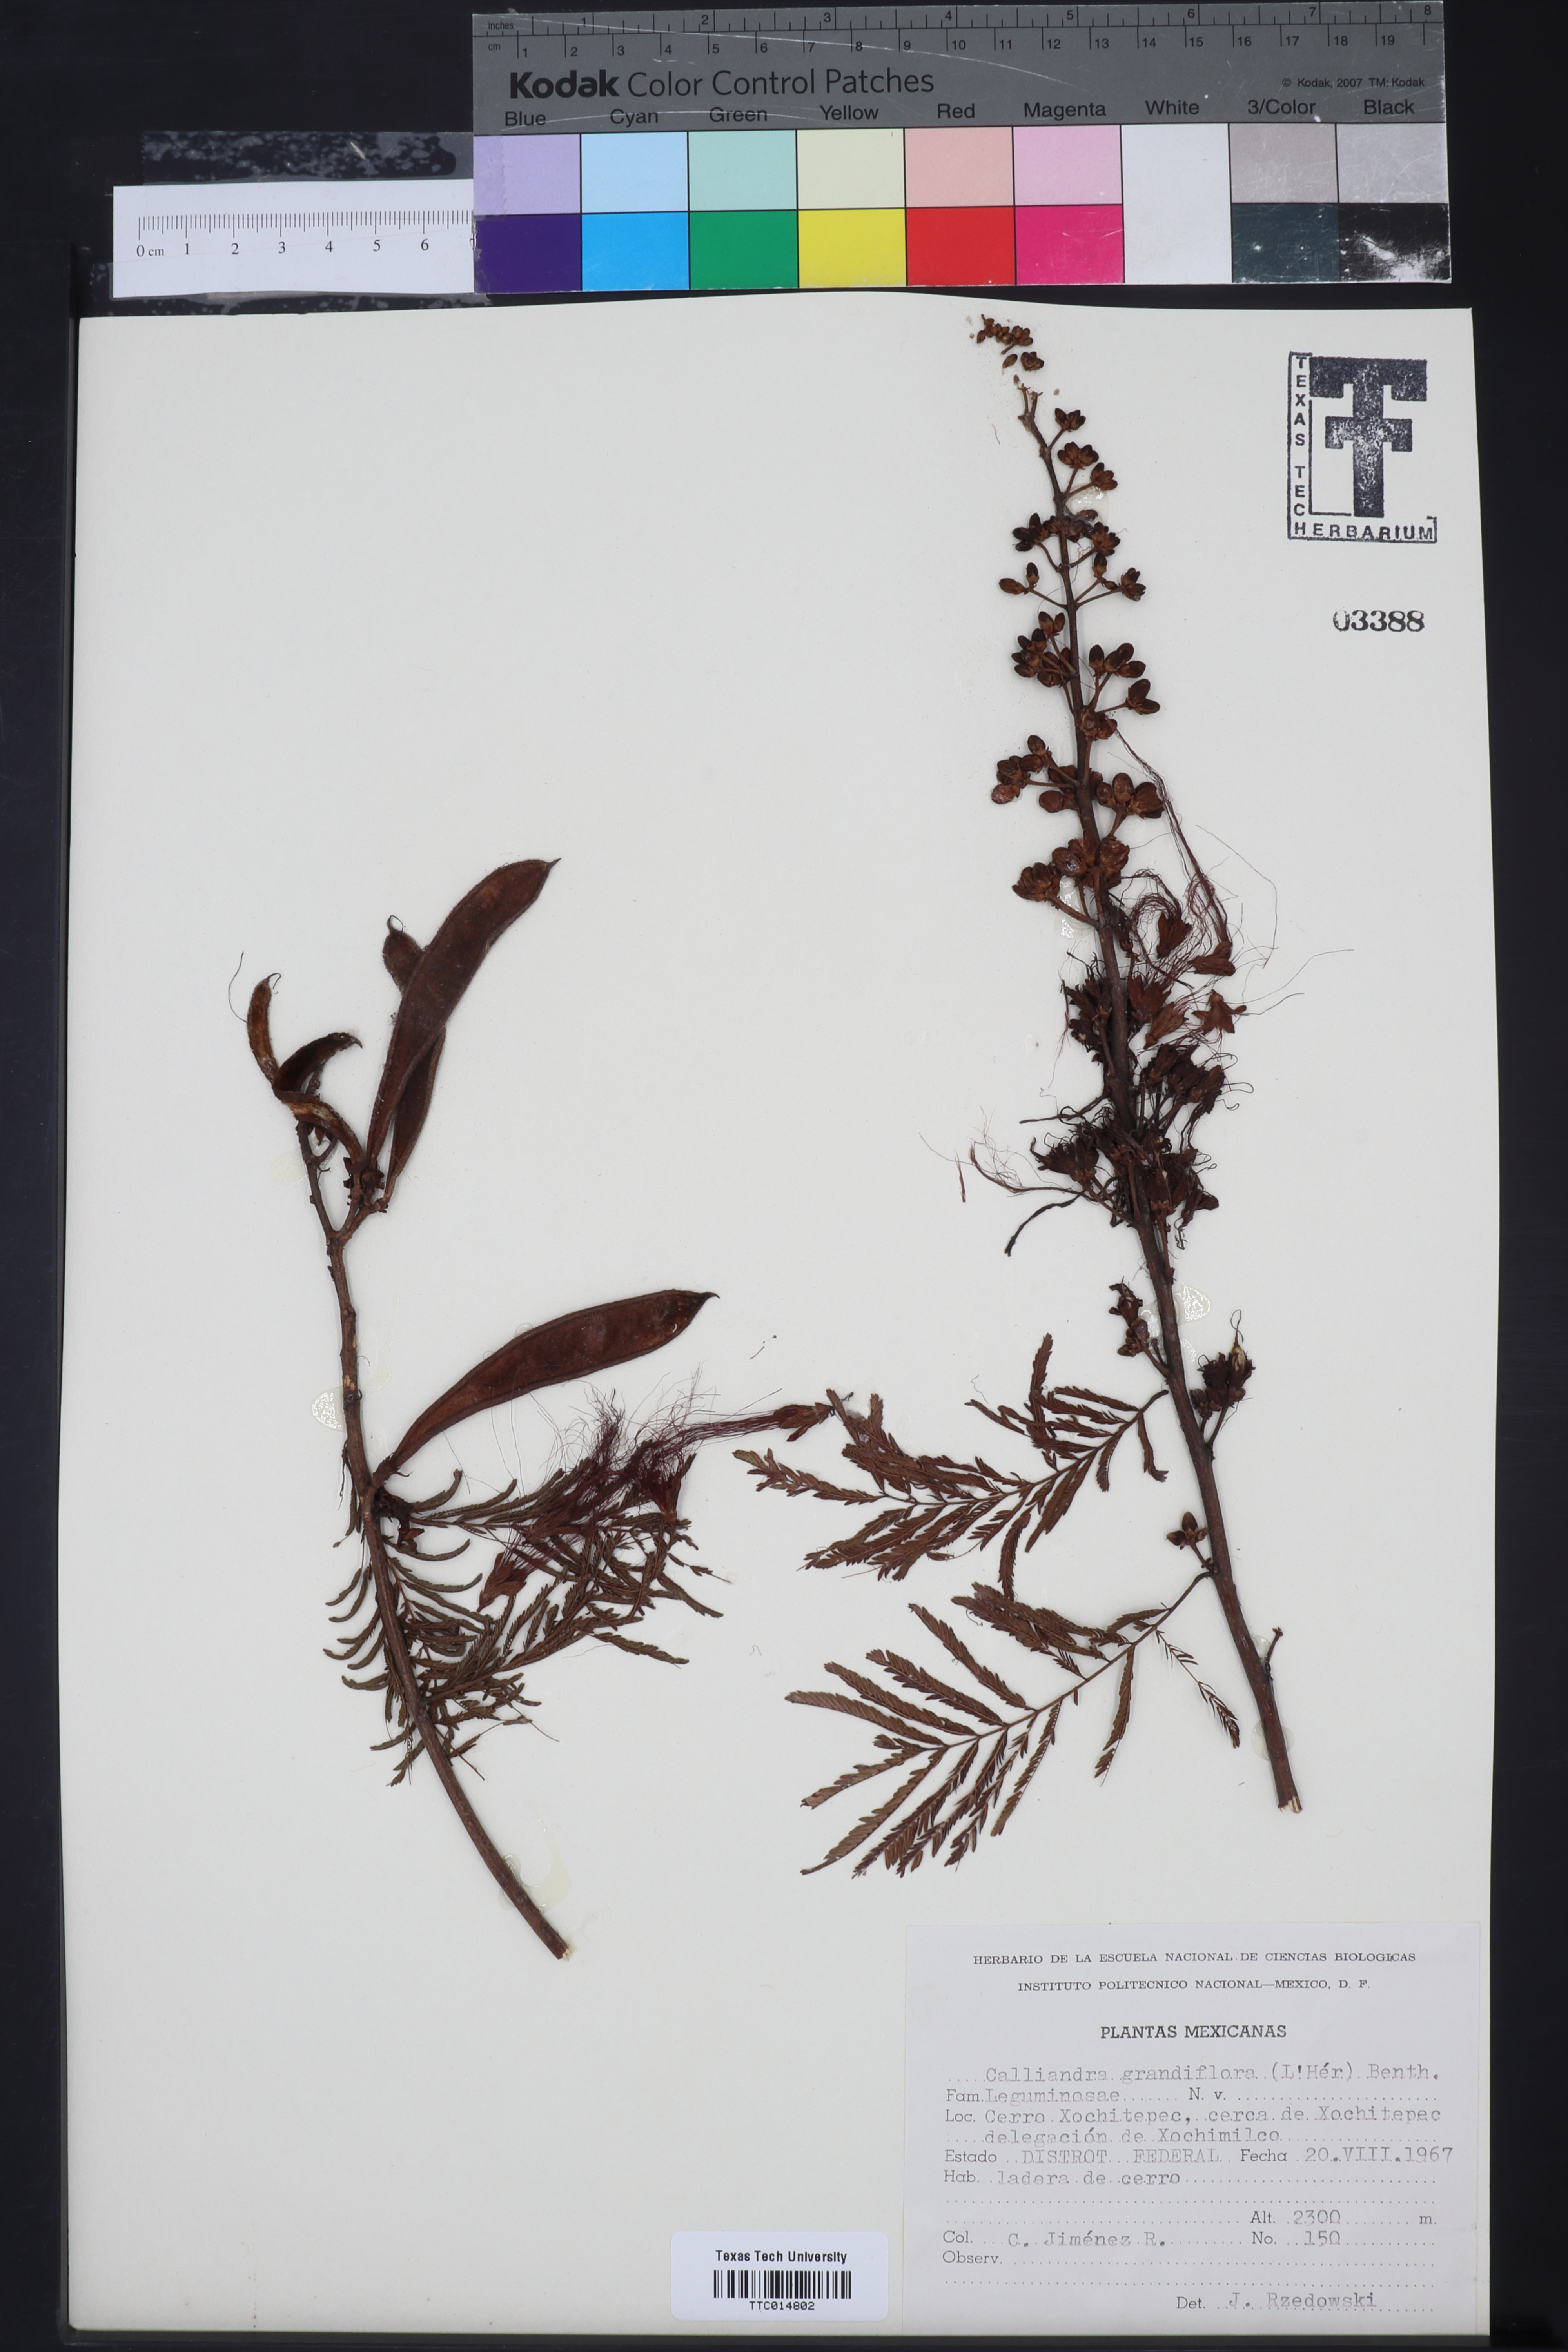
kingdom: Plantae
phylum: Tracheophyta
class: Magnoliopsida
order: Fabales
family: Fabaceae
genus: Calliandra
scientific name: Calliandra houstoniana
